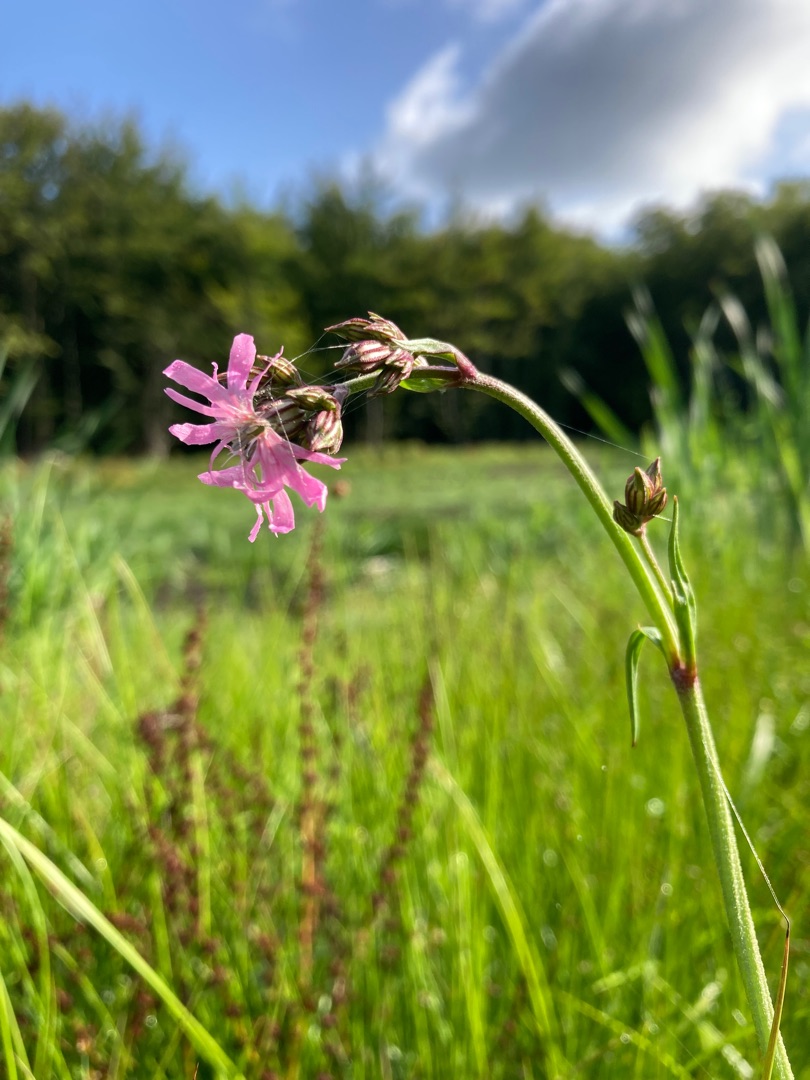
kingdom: Plantae
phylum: Tracheophyta
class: Magnoliopsida
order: Caryophyllales
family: Caryophyllaceae
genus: Silene
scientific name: Silene flos-cuculi
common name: Trævlekrone
